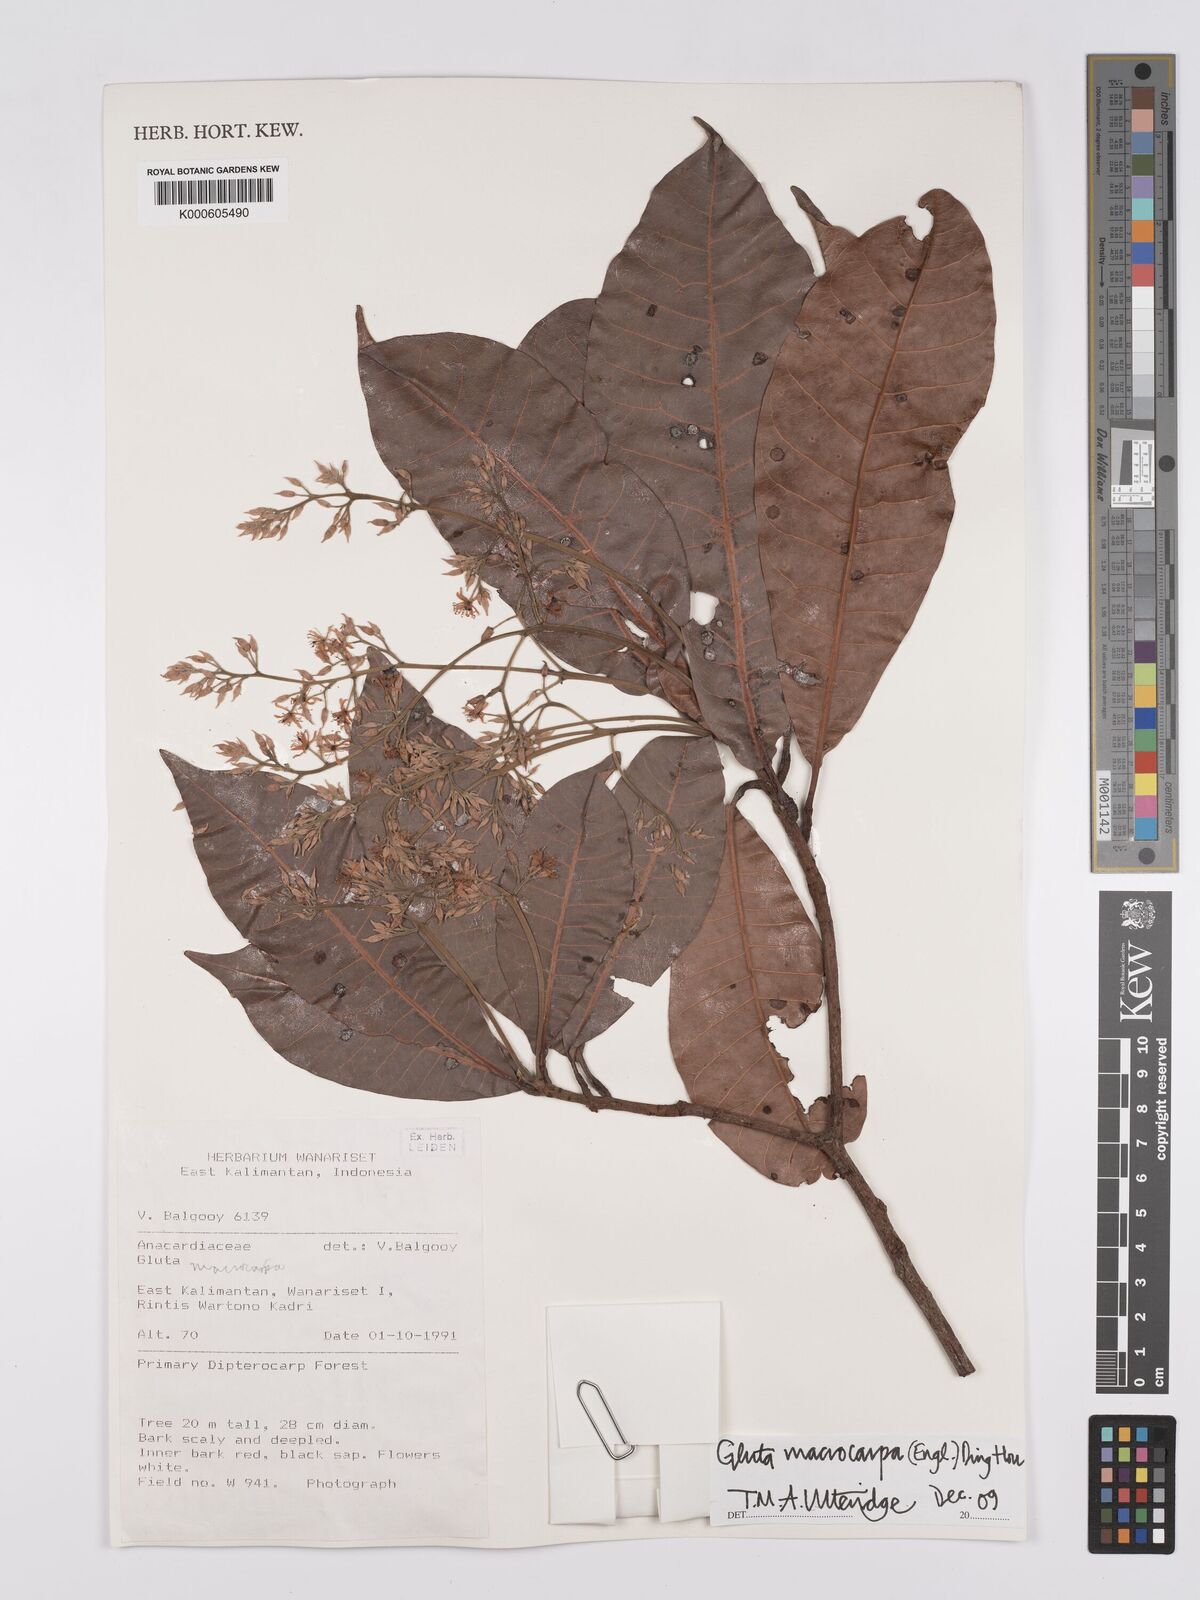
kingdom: Plantae
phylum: Tracheophyta
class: Magnoliopsida
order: Sapindales
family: Anacardiaceae
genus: Gluta
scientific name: Gluta macrocarpa
